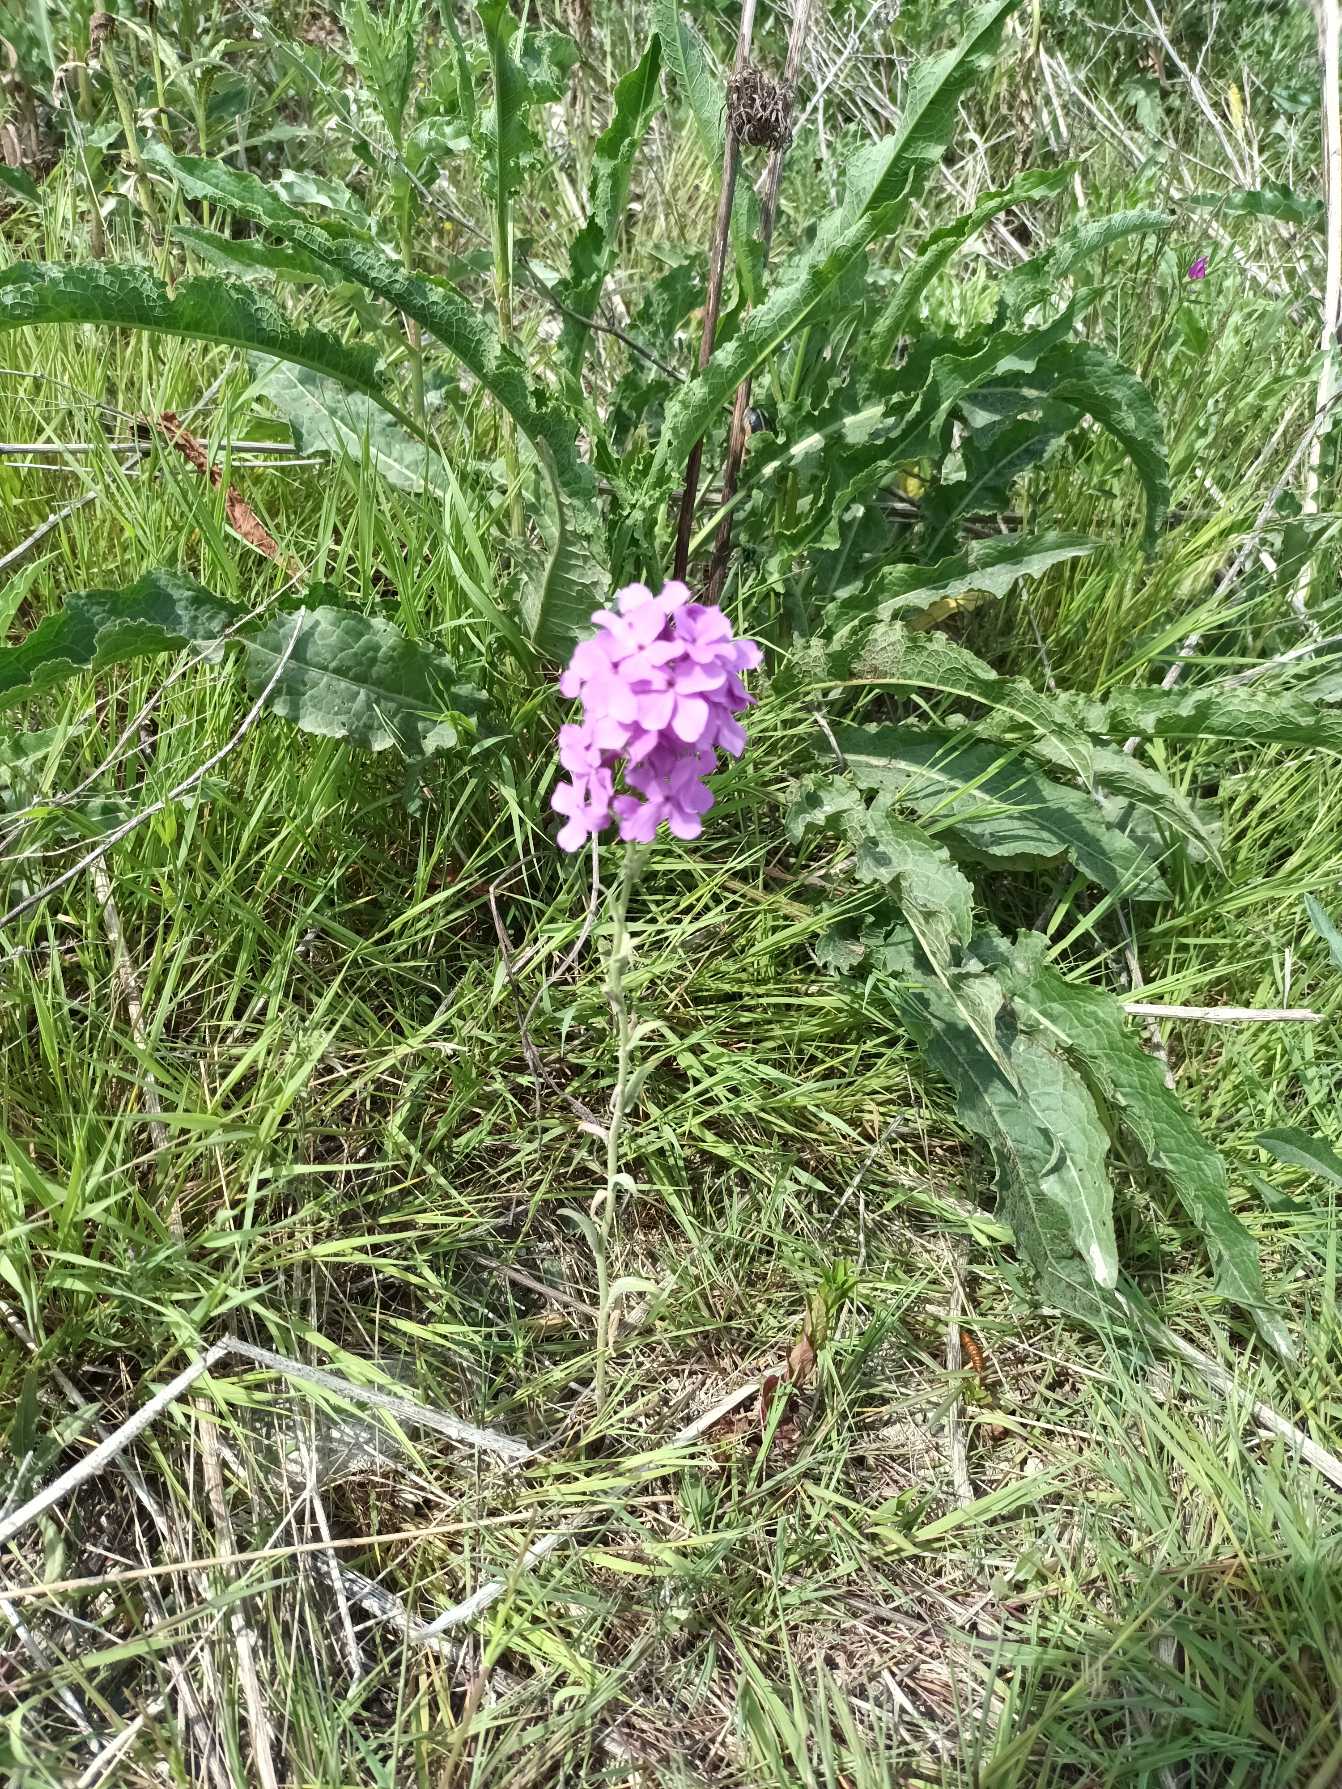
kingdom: Plantae
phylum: Tracheophyta
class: Magnoliopsida
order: Brassicales
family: Brassicaceae
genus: Hesperis
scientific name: Hesperis matronalis
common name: Aftenstjerne
